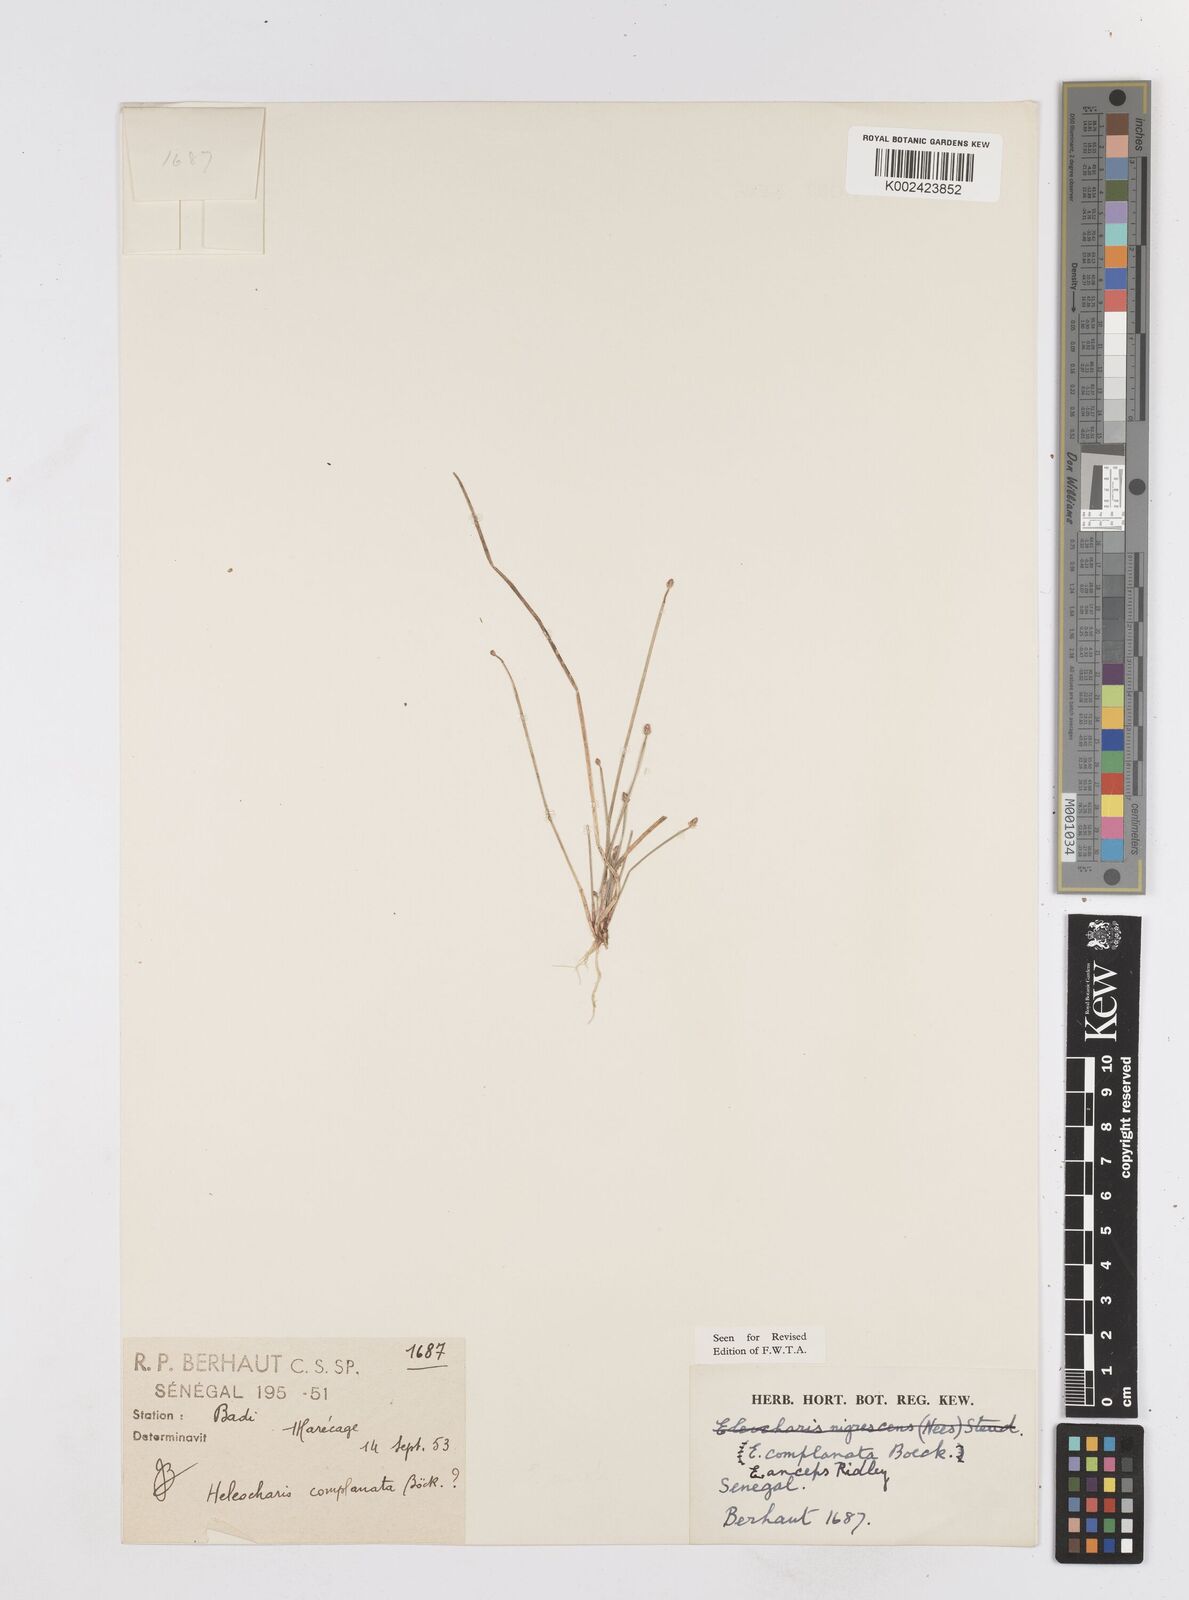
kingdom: Plantae
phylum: Tracheophyta
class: Liliopsida
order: Poales
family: Cyperaceae
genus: Eleocharis
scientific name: Eleocharis complanata
